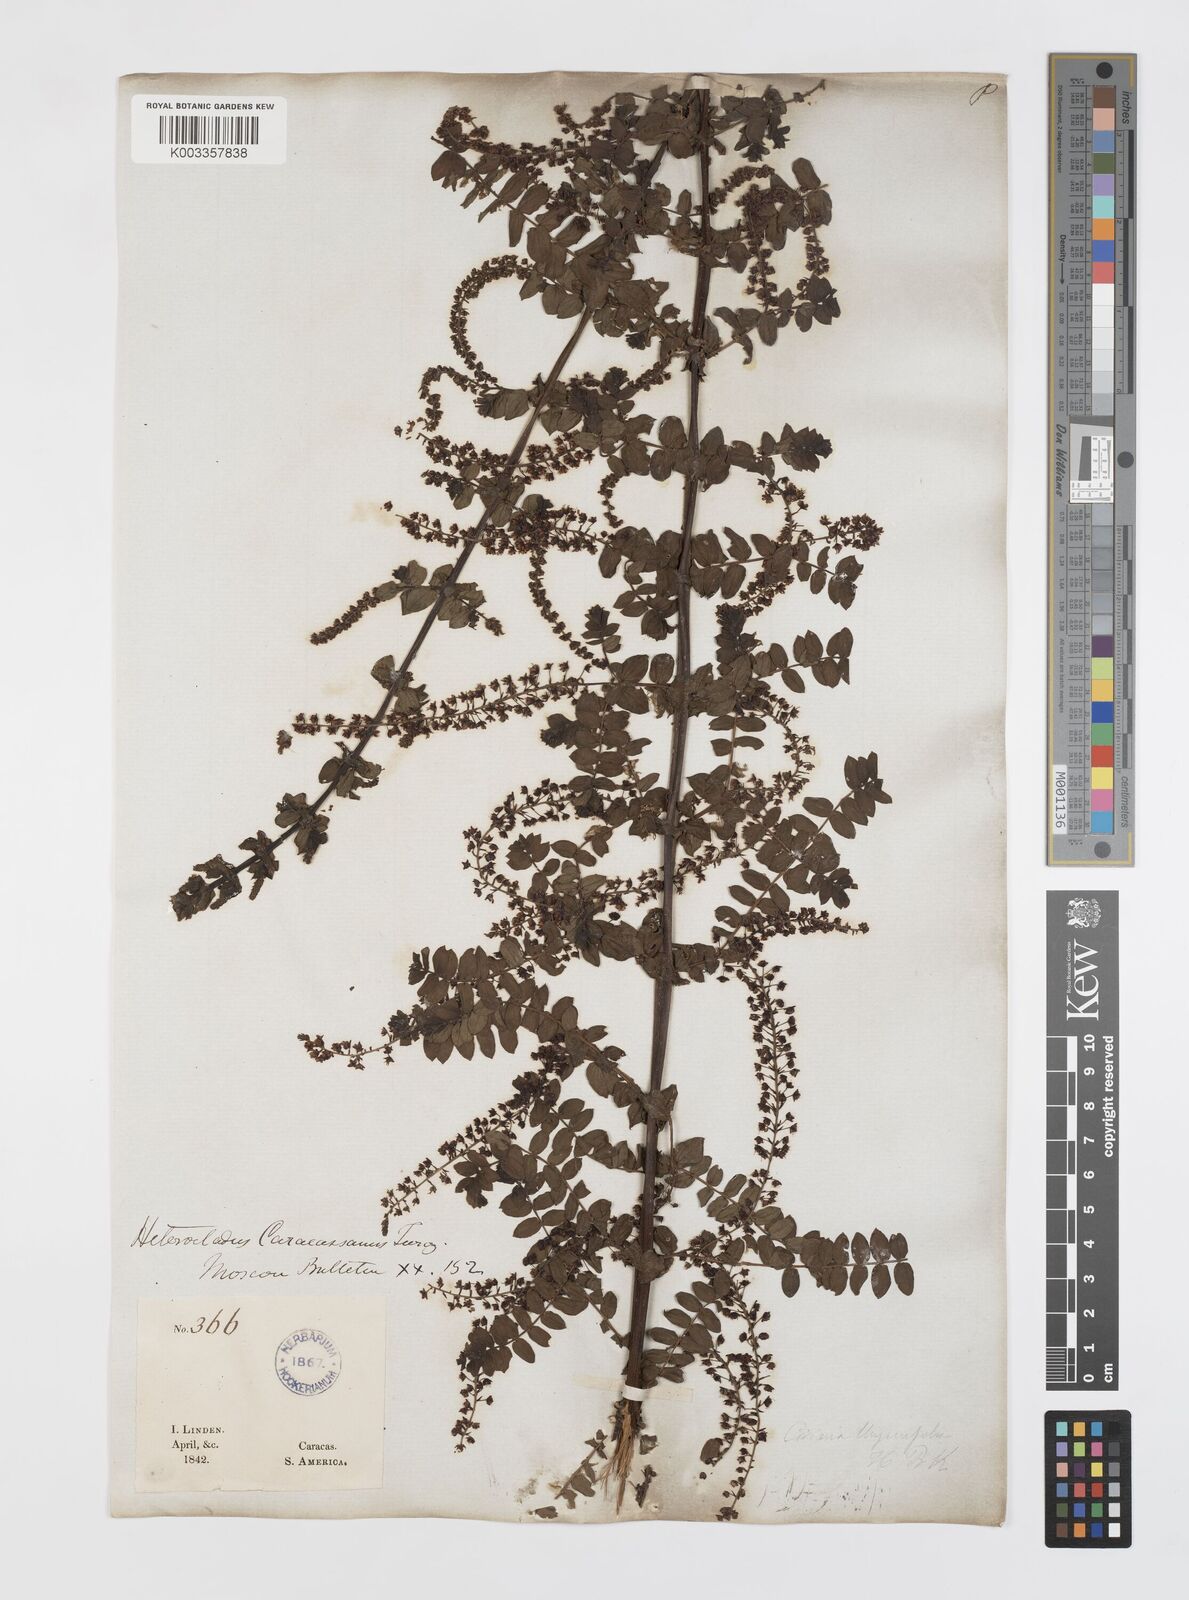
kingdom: Plantae
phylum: Tracheophyta
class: Magnoliopsida
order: Cucurbitales
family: Coriariaceae
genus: Coriaria
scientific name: Coriaria microphylla
